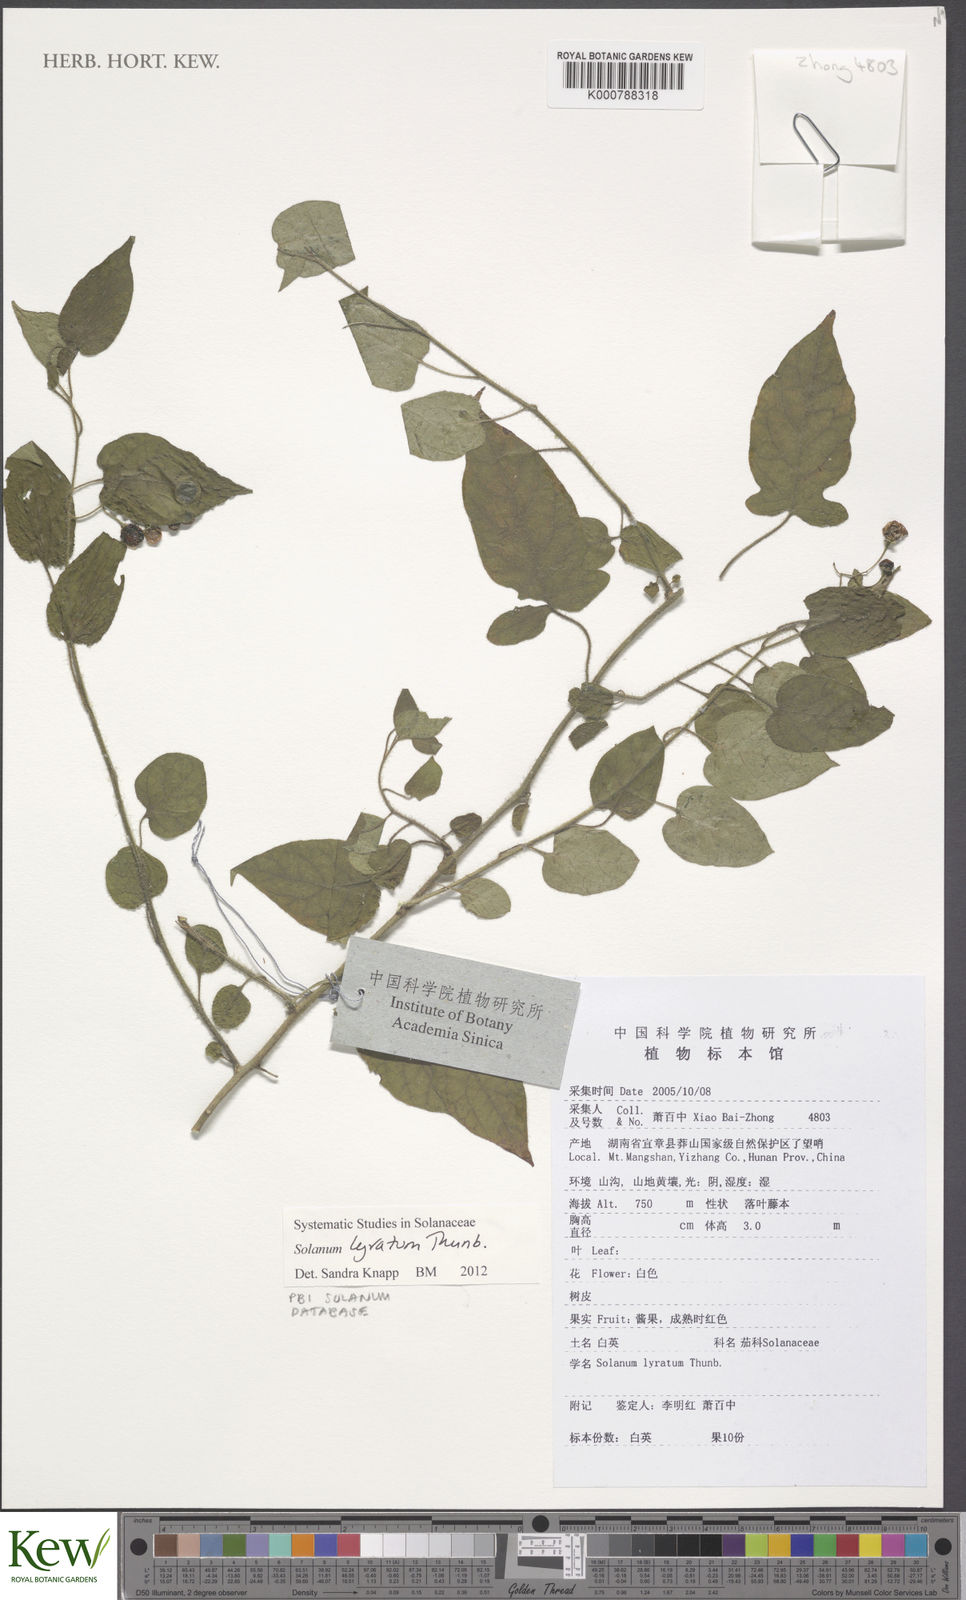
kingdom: Plantae
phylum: Tracheophyta
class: Magnoliopsida
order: Solanales
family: Solanaceae
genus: Solanum
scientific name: Solanum lyratum
